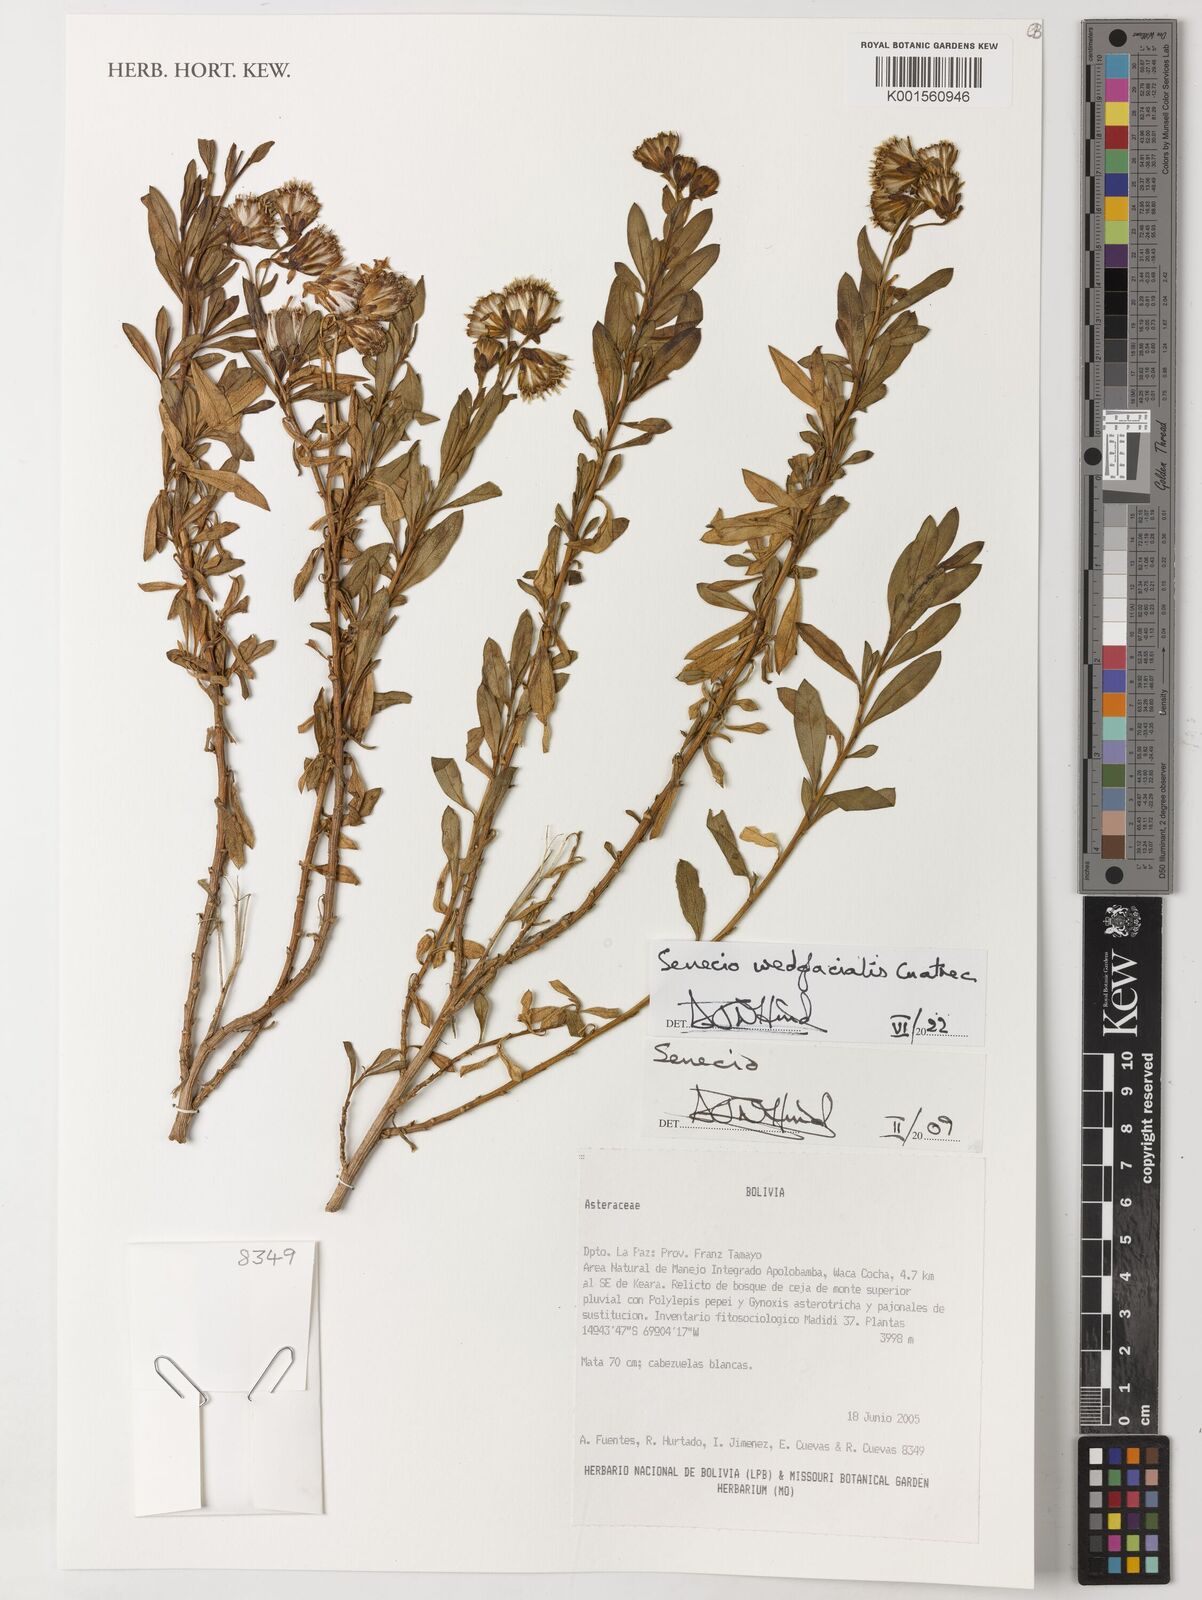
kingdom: Plantae
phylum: Tracheophyta
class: Magnoliopsida
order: Asterales
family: Asteraceae
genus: Senecio
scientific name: Senecio wedglacialis
